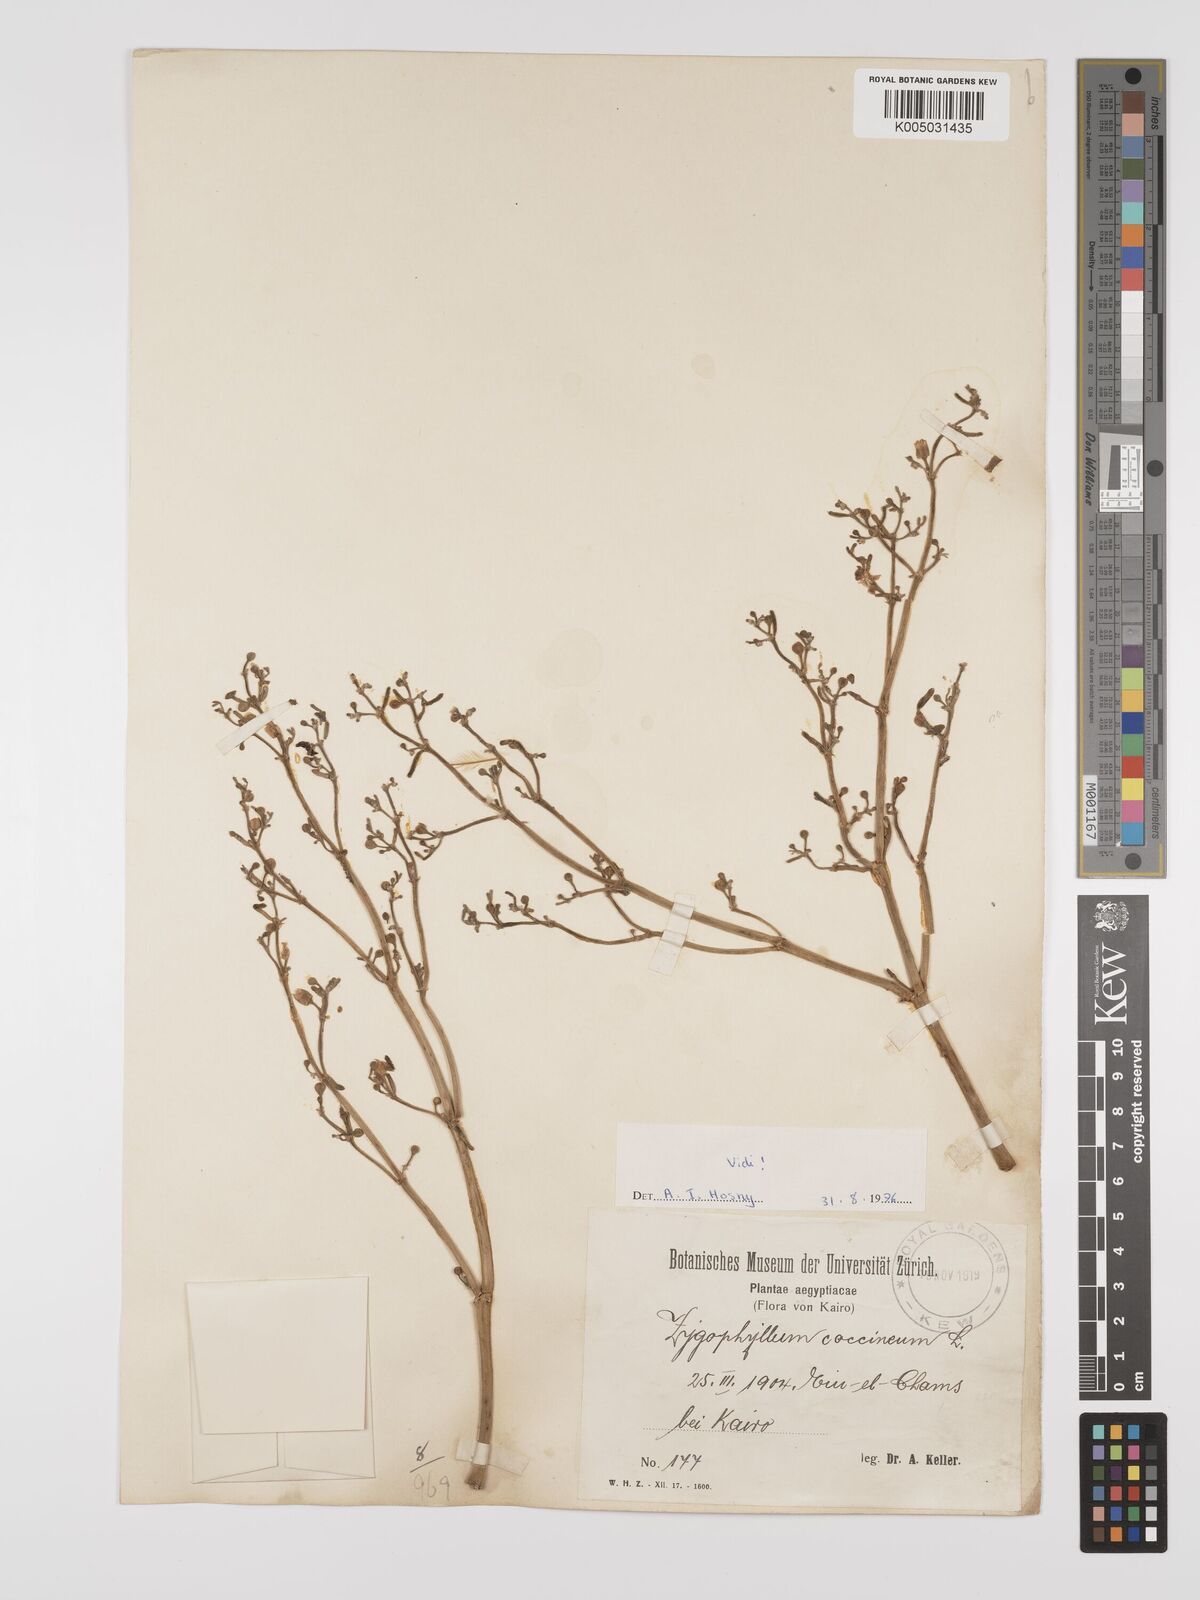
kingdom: Plantae
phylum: Tracheophyta
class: Magnoliopsida
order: Zygophyllales
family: Zygophyllaceae
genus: Zygophyllum
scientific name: Zygophyllum
